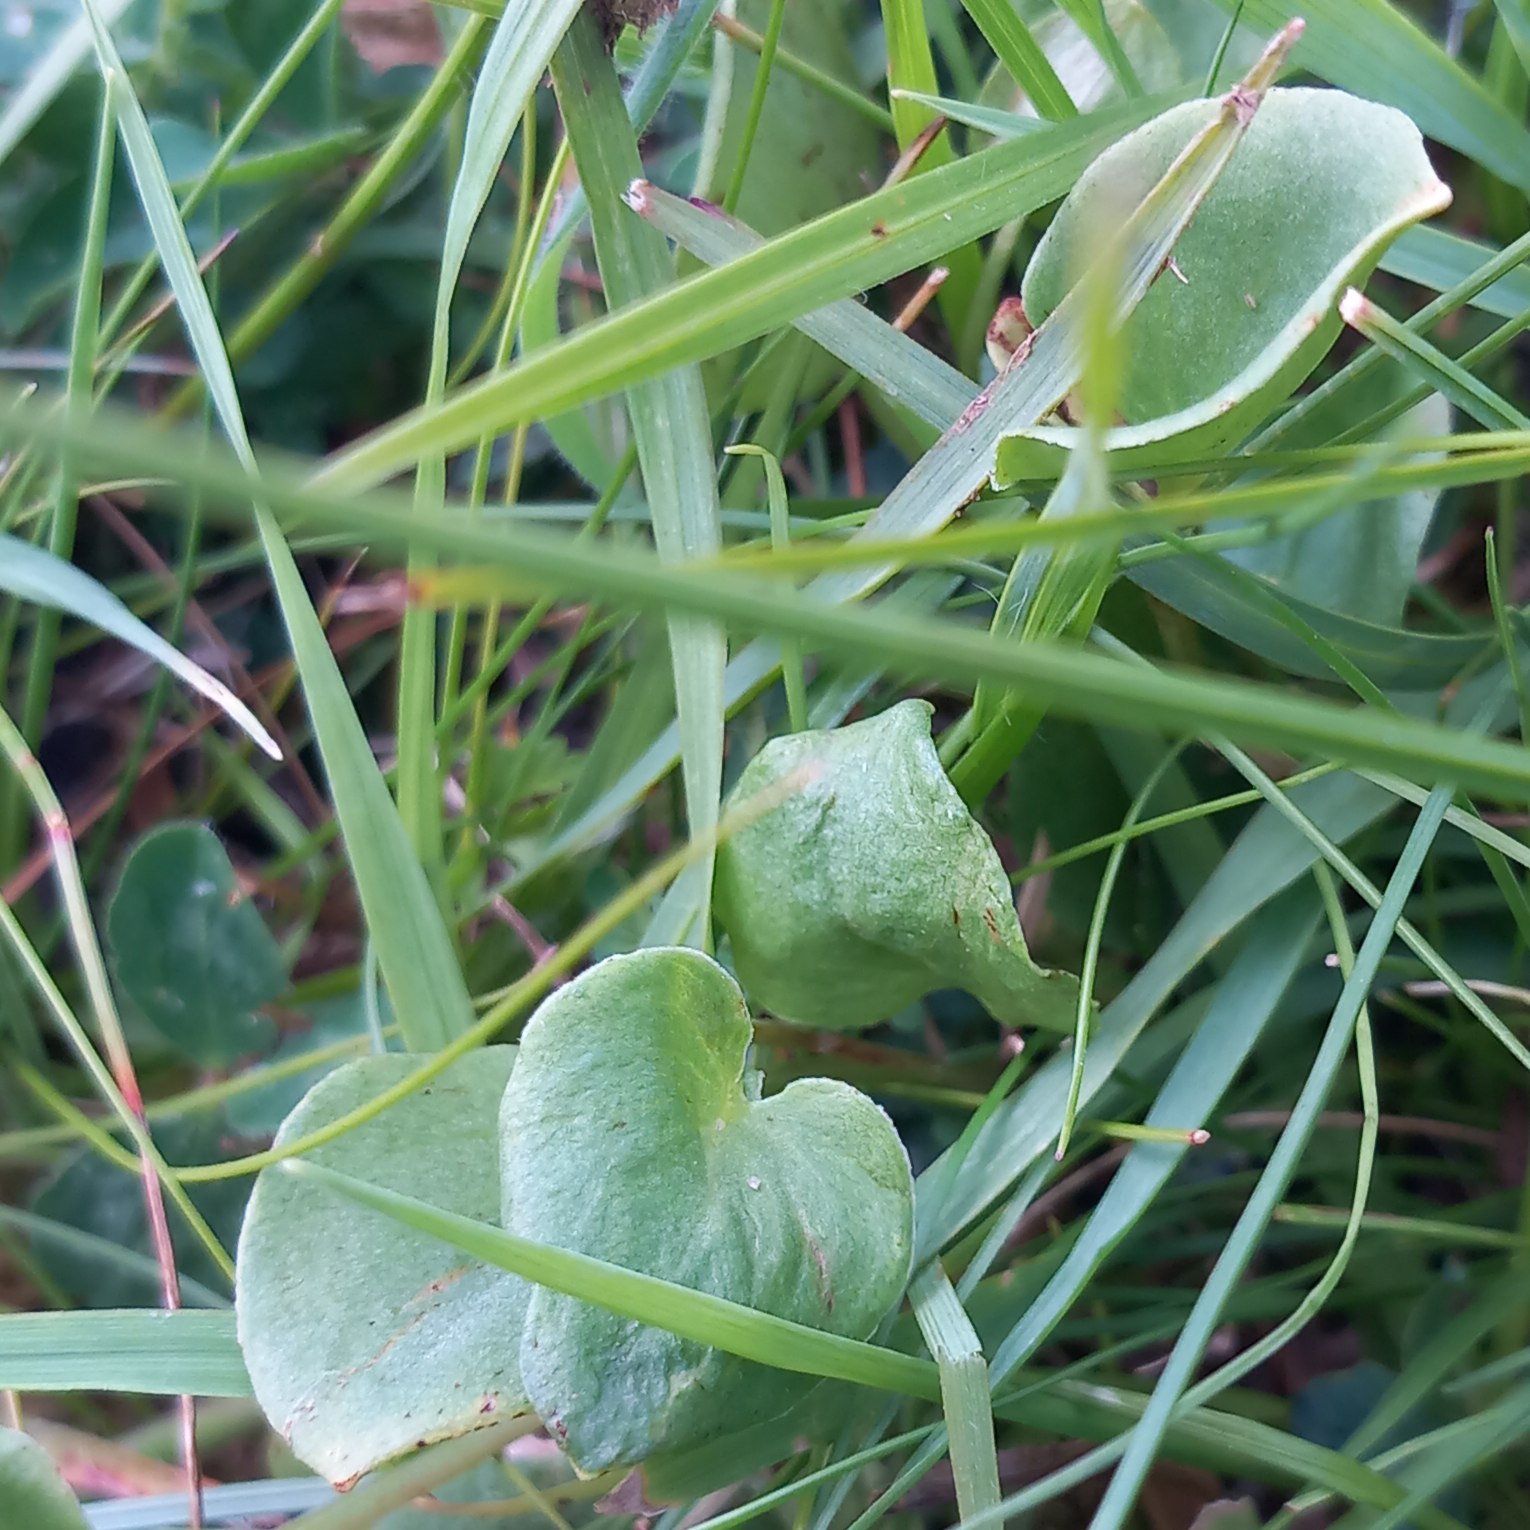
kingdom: Plantae
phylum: Tracheophyta
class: Magnoliopsida
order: Celastrales
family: Parnassiaceae
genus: Parnassia
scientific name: Parnassia palustris
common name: Leverurt
